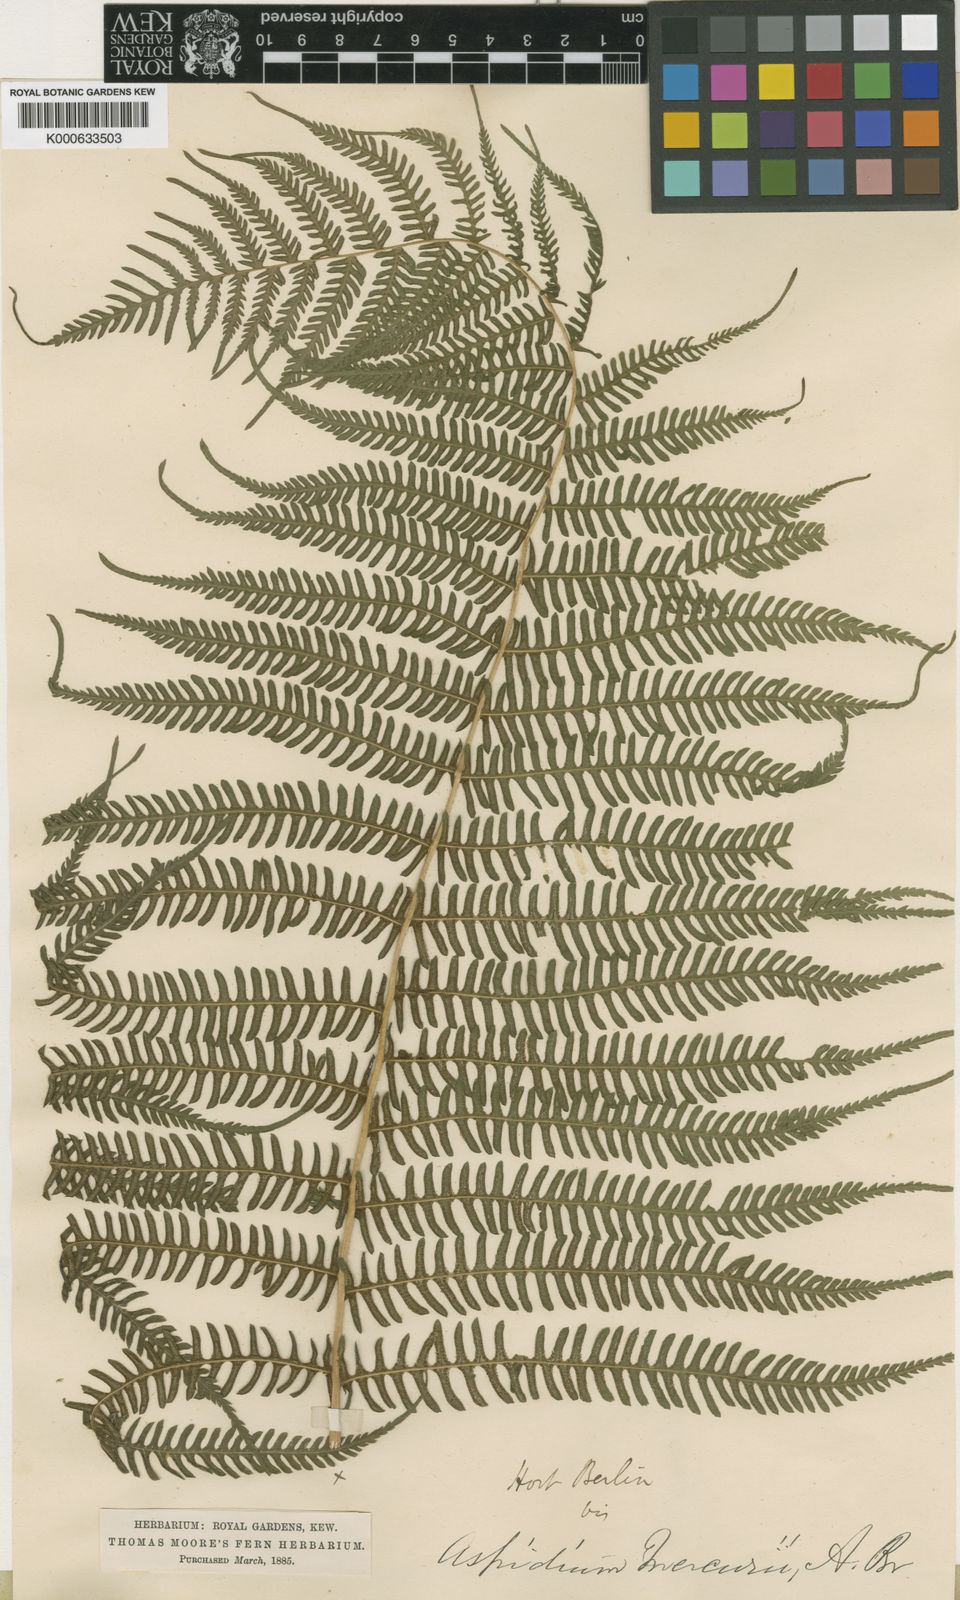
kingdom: Plantae
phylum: Tracheophyta
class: Polypodiopsida
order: Polypodiales
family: Thelypteridaceae
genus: Amauropelta
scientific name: Amauropelta
